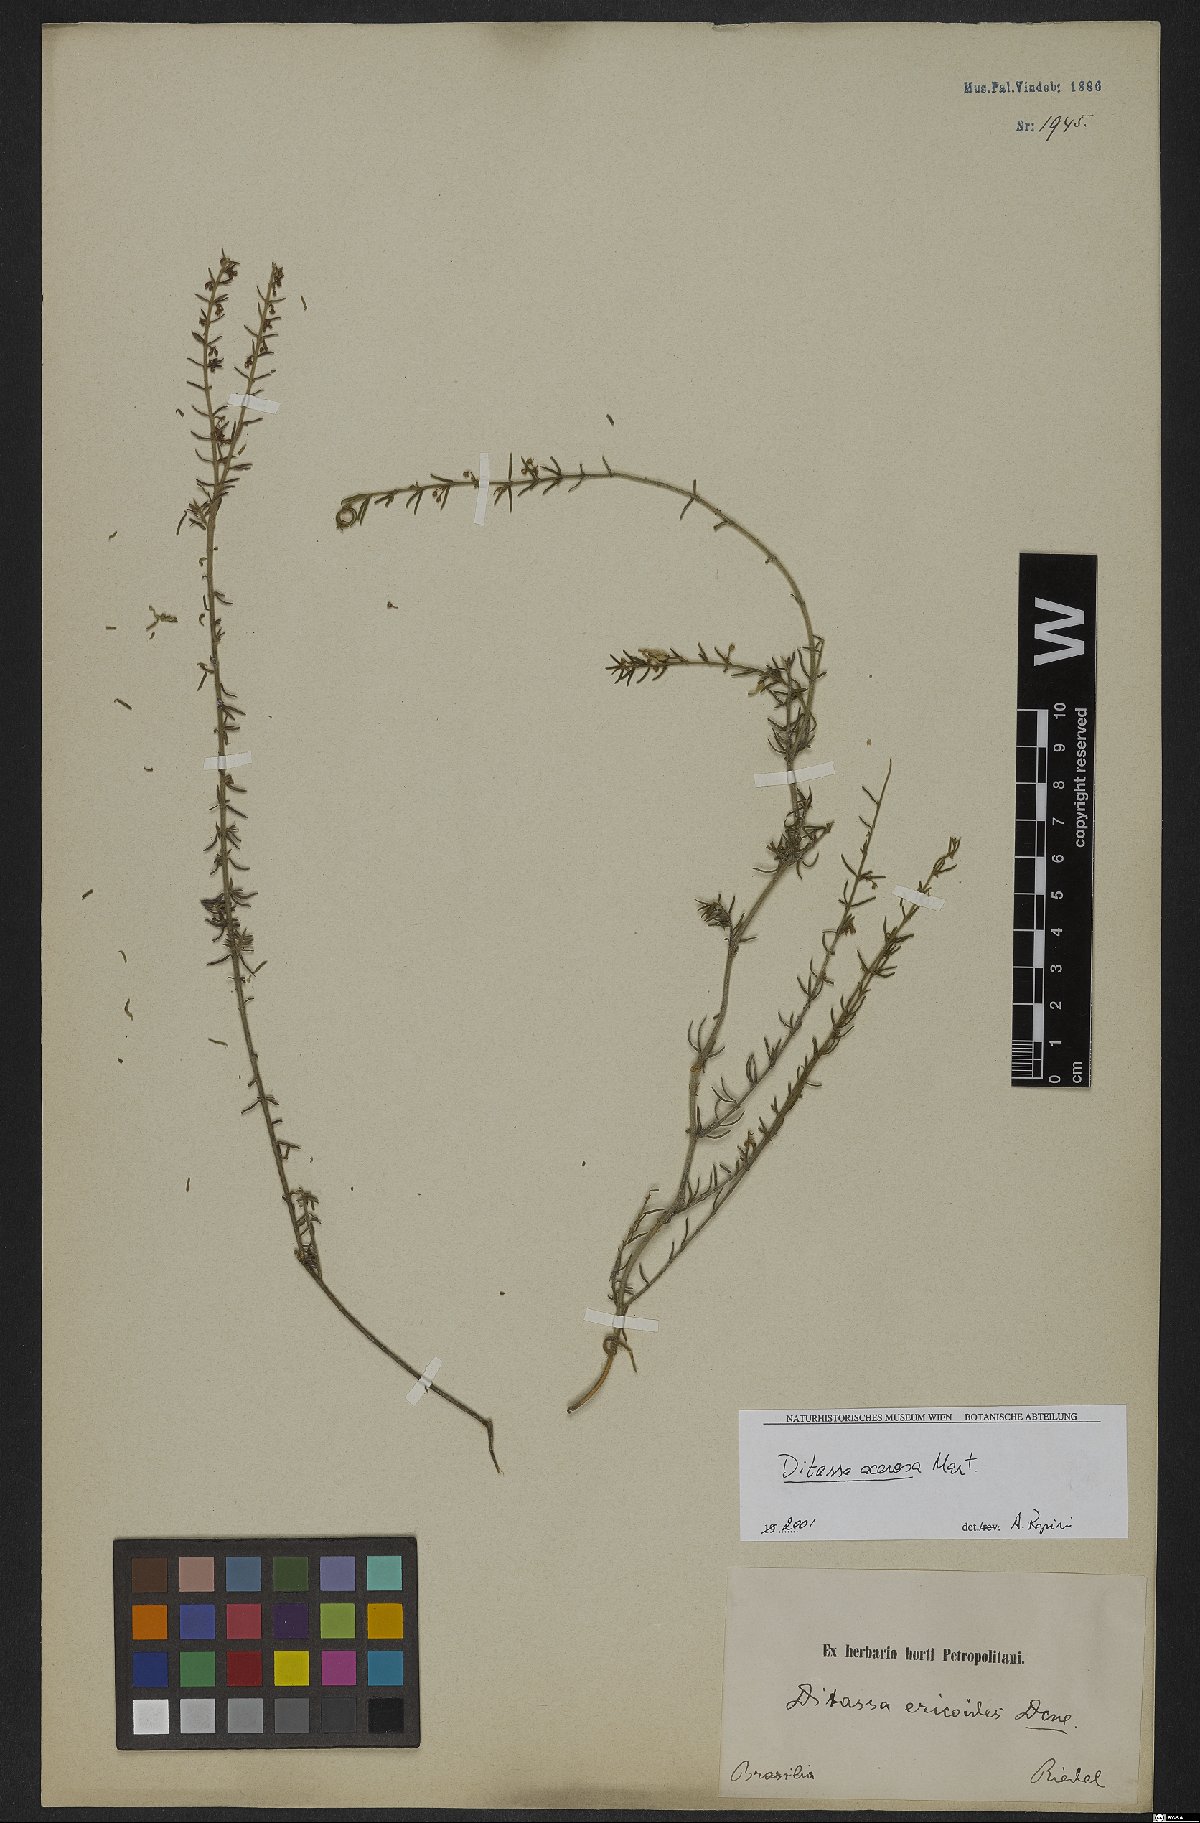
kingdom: Plantae
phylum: Tracheophyta
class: Magnoliopsida
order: Gentianales
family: Apocynaceae
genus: Minaria
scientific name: Minaria acerosa
